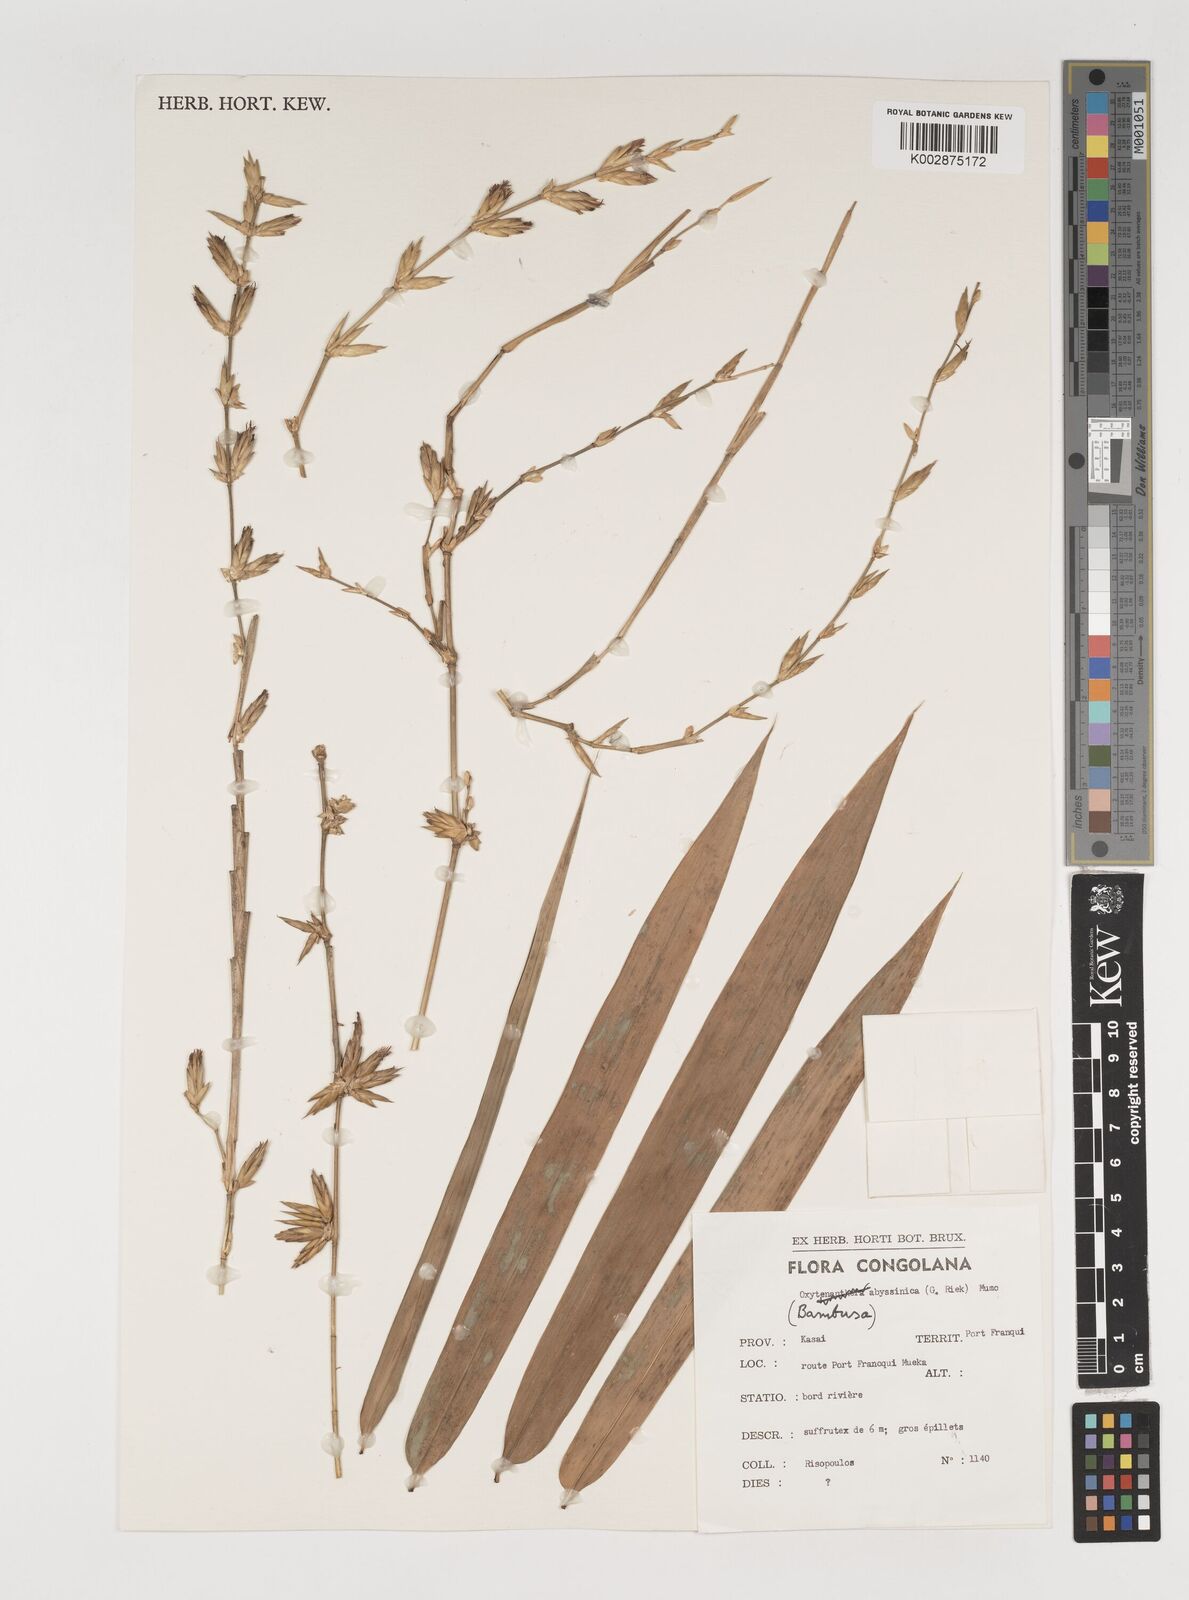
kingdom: Plantae
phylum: Tracheophyta
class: Liliopsida
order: Poales
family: Poaceae
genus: Oxytenanthera
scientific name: Oxytenanthera abyssinica
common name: Wine bamboo
